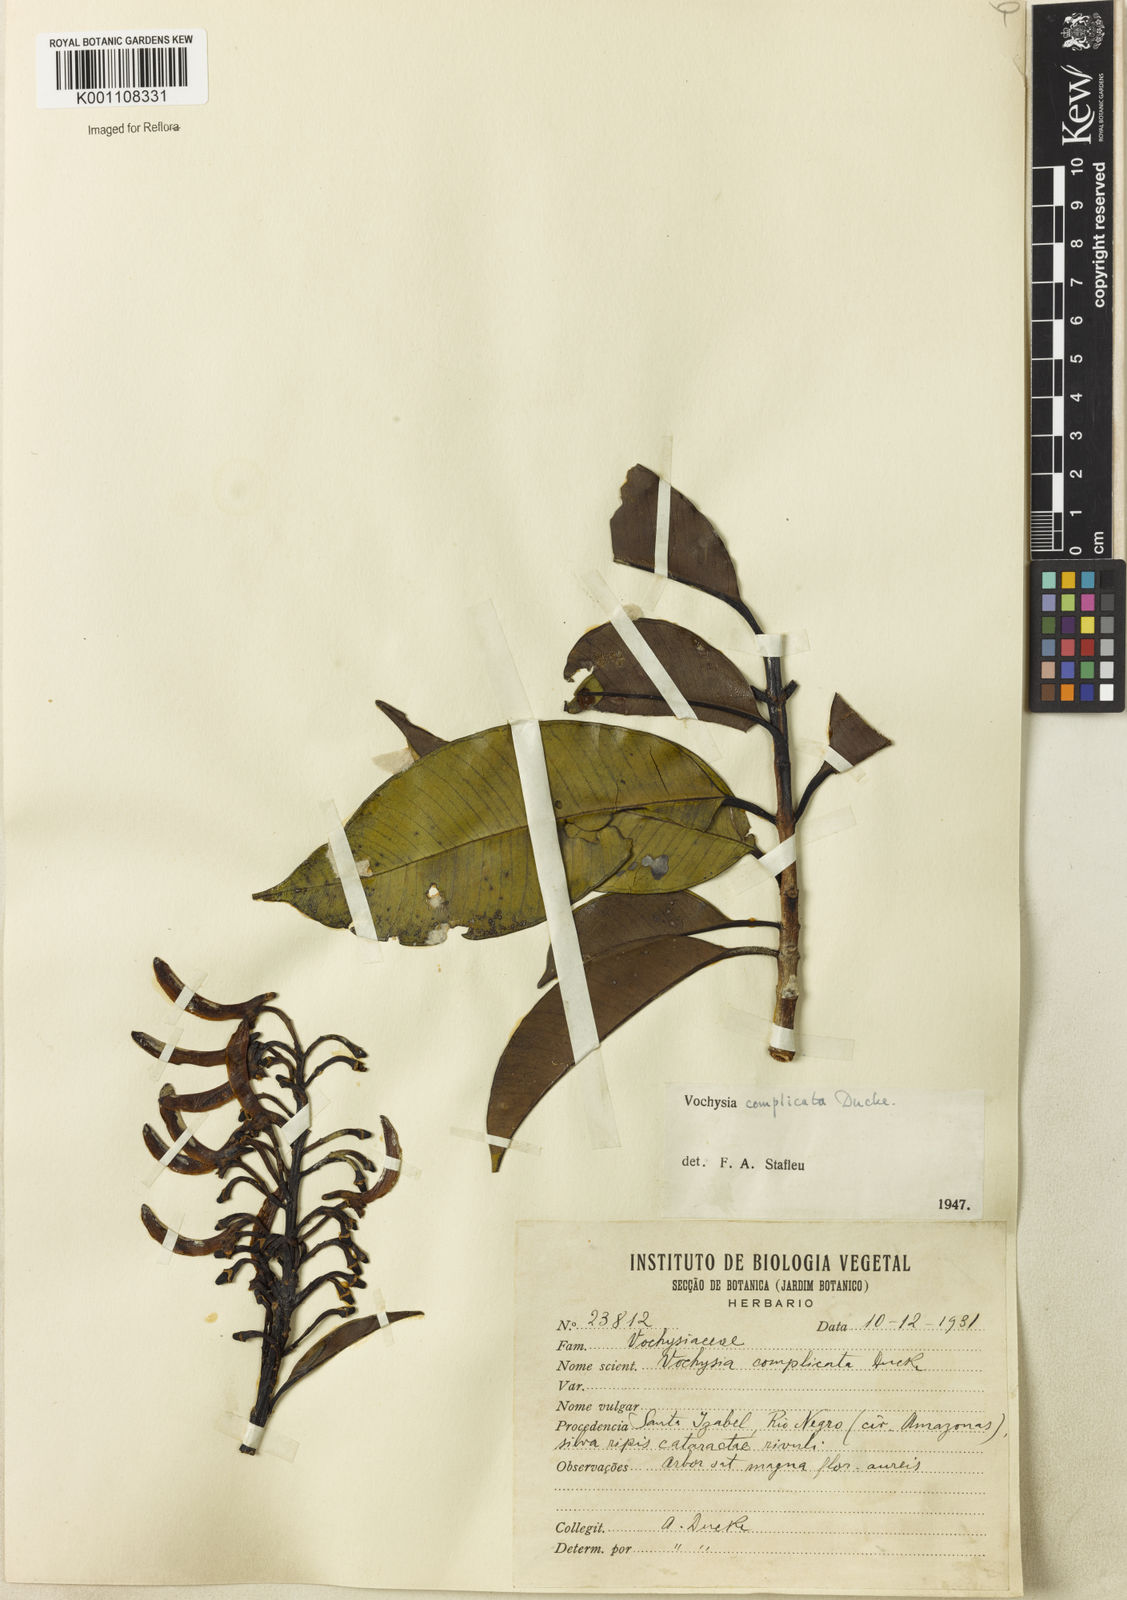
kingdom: Plantae
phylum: Tracheophyta
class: Magnoliopsida
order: Myrtales
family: Vochysiaceae
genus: Vochysia
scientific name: Vochysia complicata
